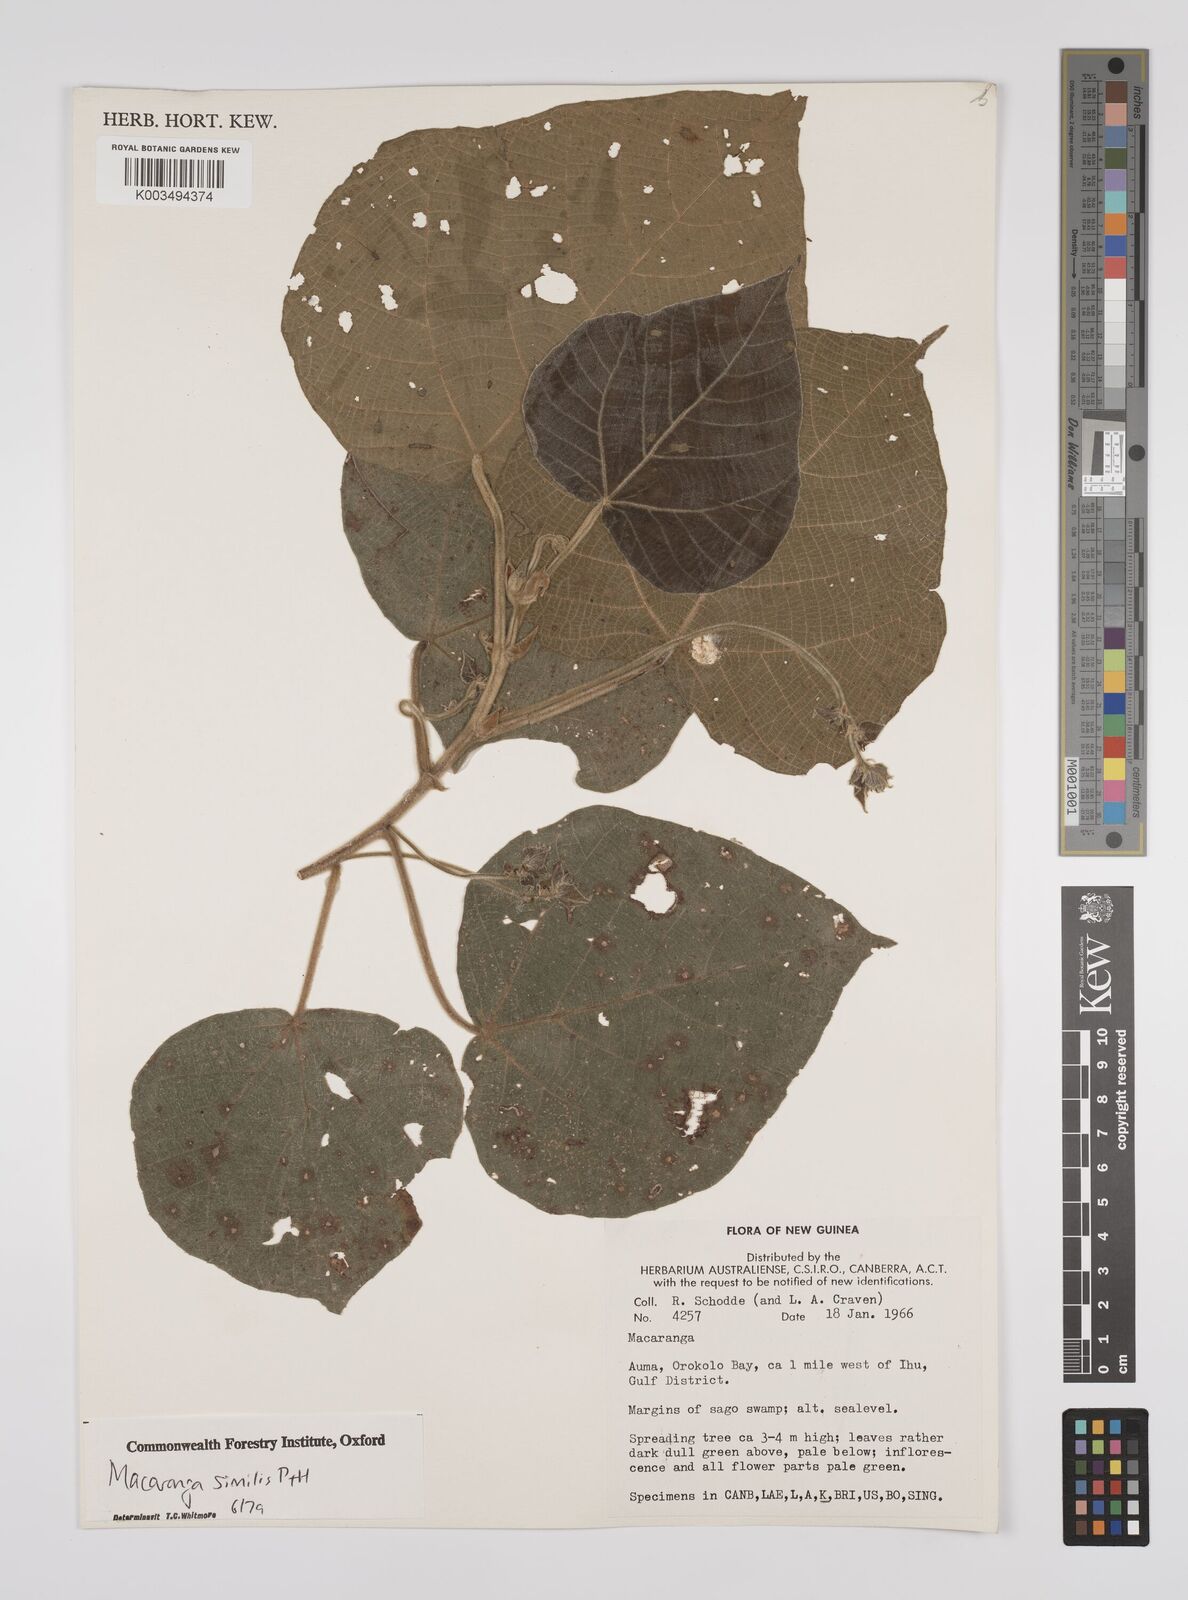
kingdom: Plantae
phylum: Tracheophyta
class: Magnoliopsida
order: Malpighiales
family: Euphorbiaceae
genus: Macaranga
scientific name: Macaranga similis
